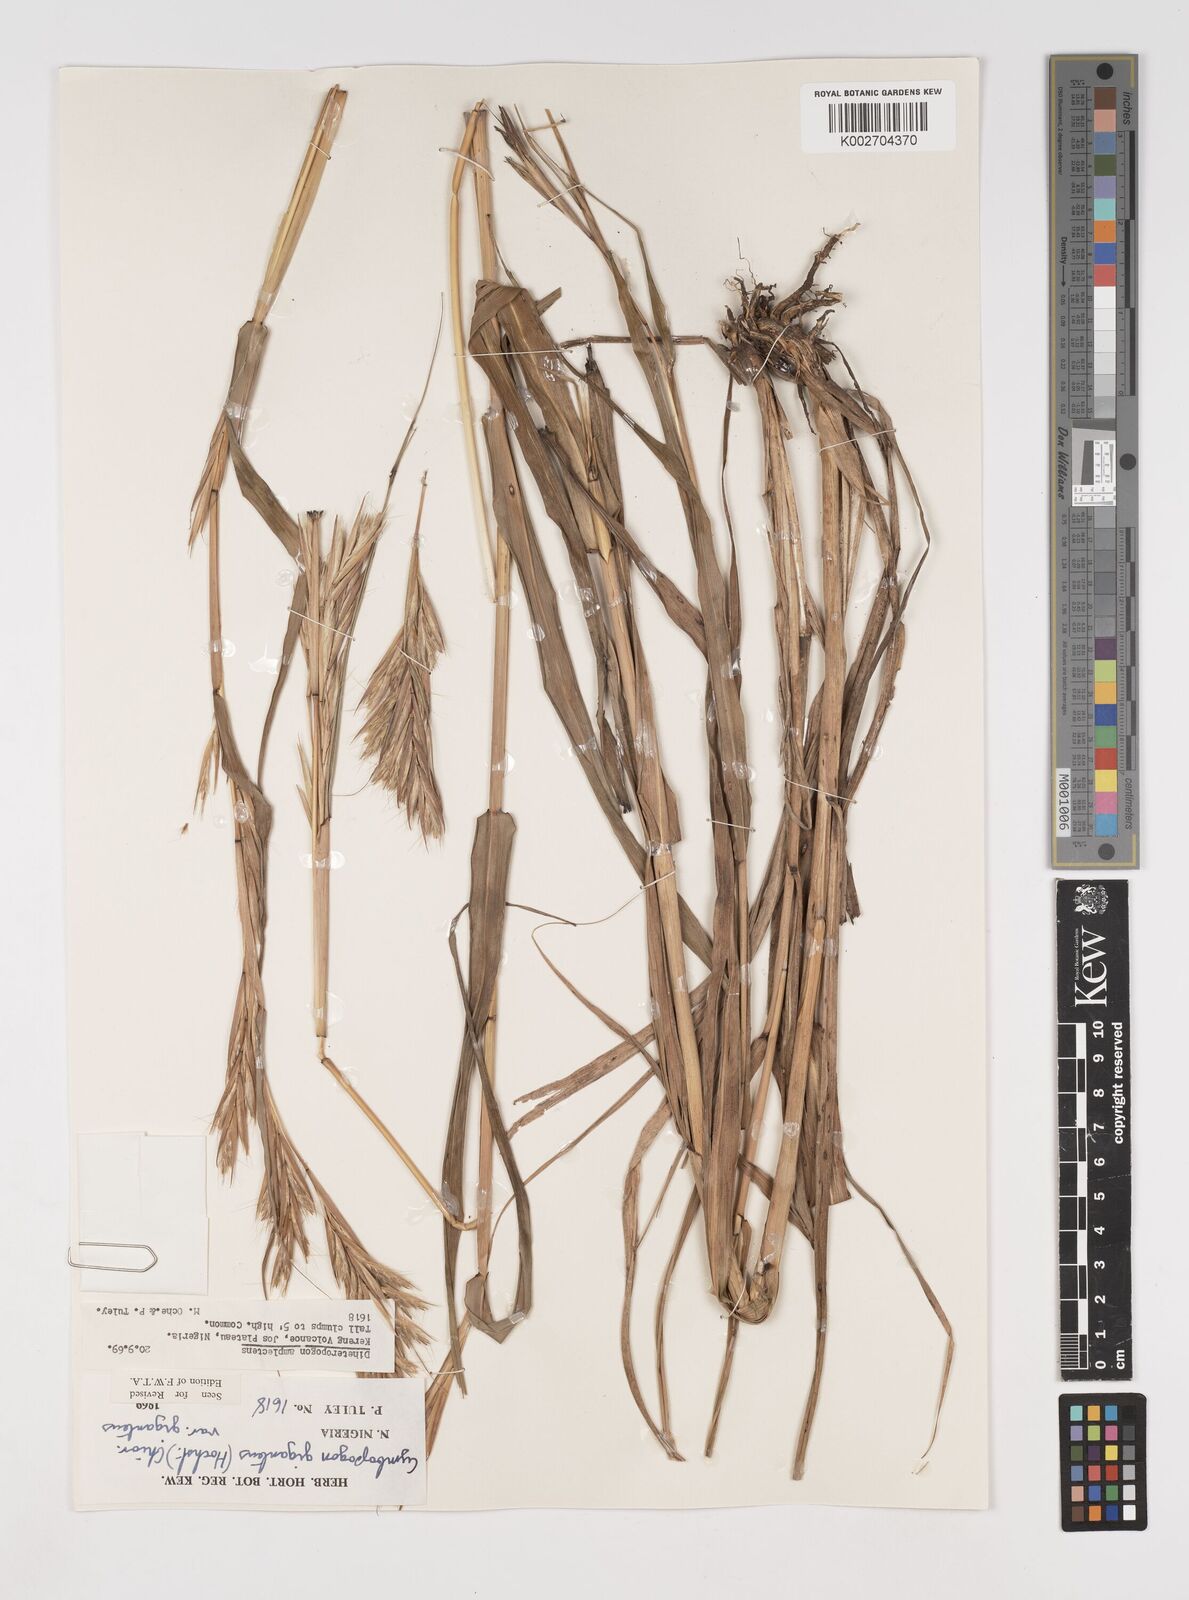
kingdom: Plantae
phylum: Tracheophyta
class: Liliopsida
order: Poales
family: Poaceae
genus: Cymbopogon
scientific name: Cymbopogon giganteus
